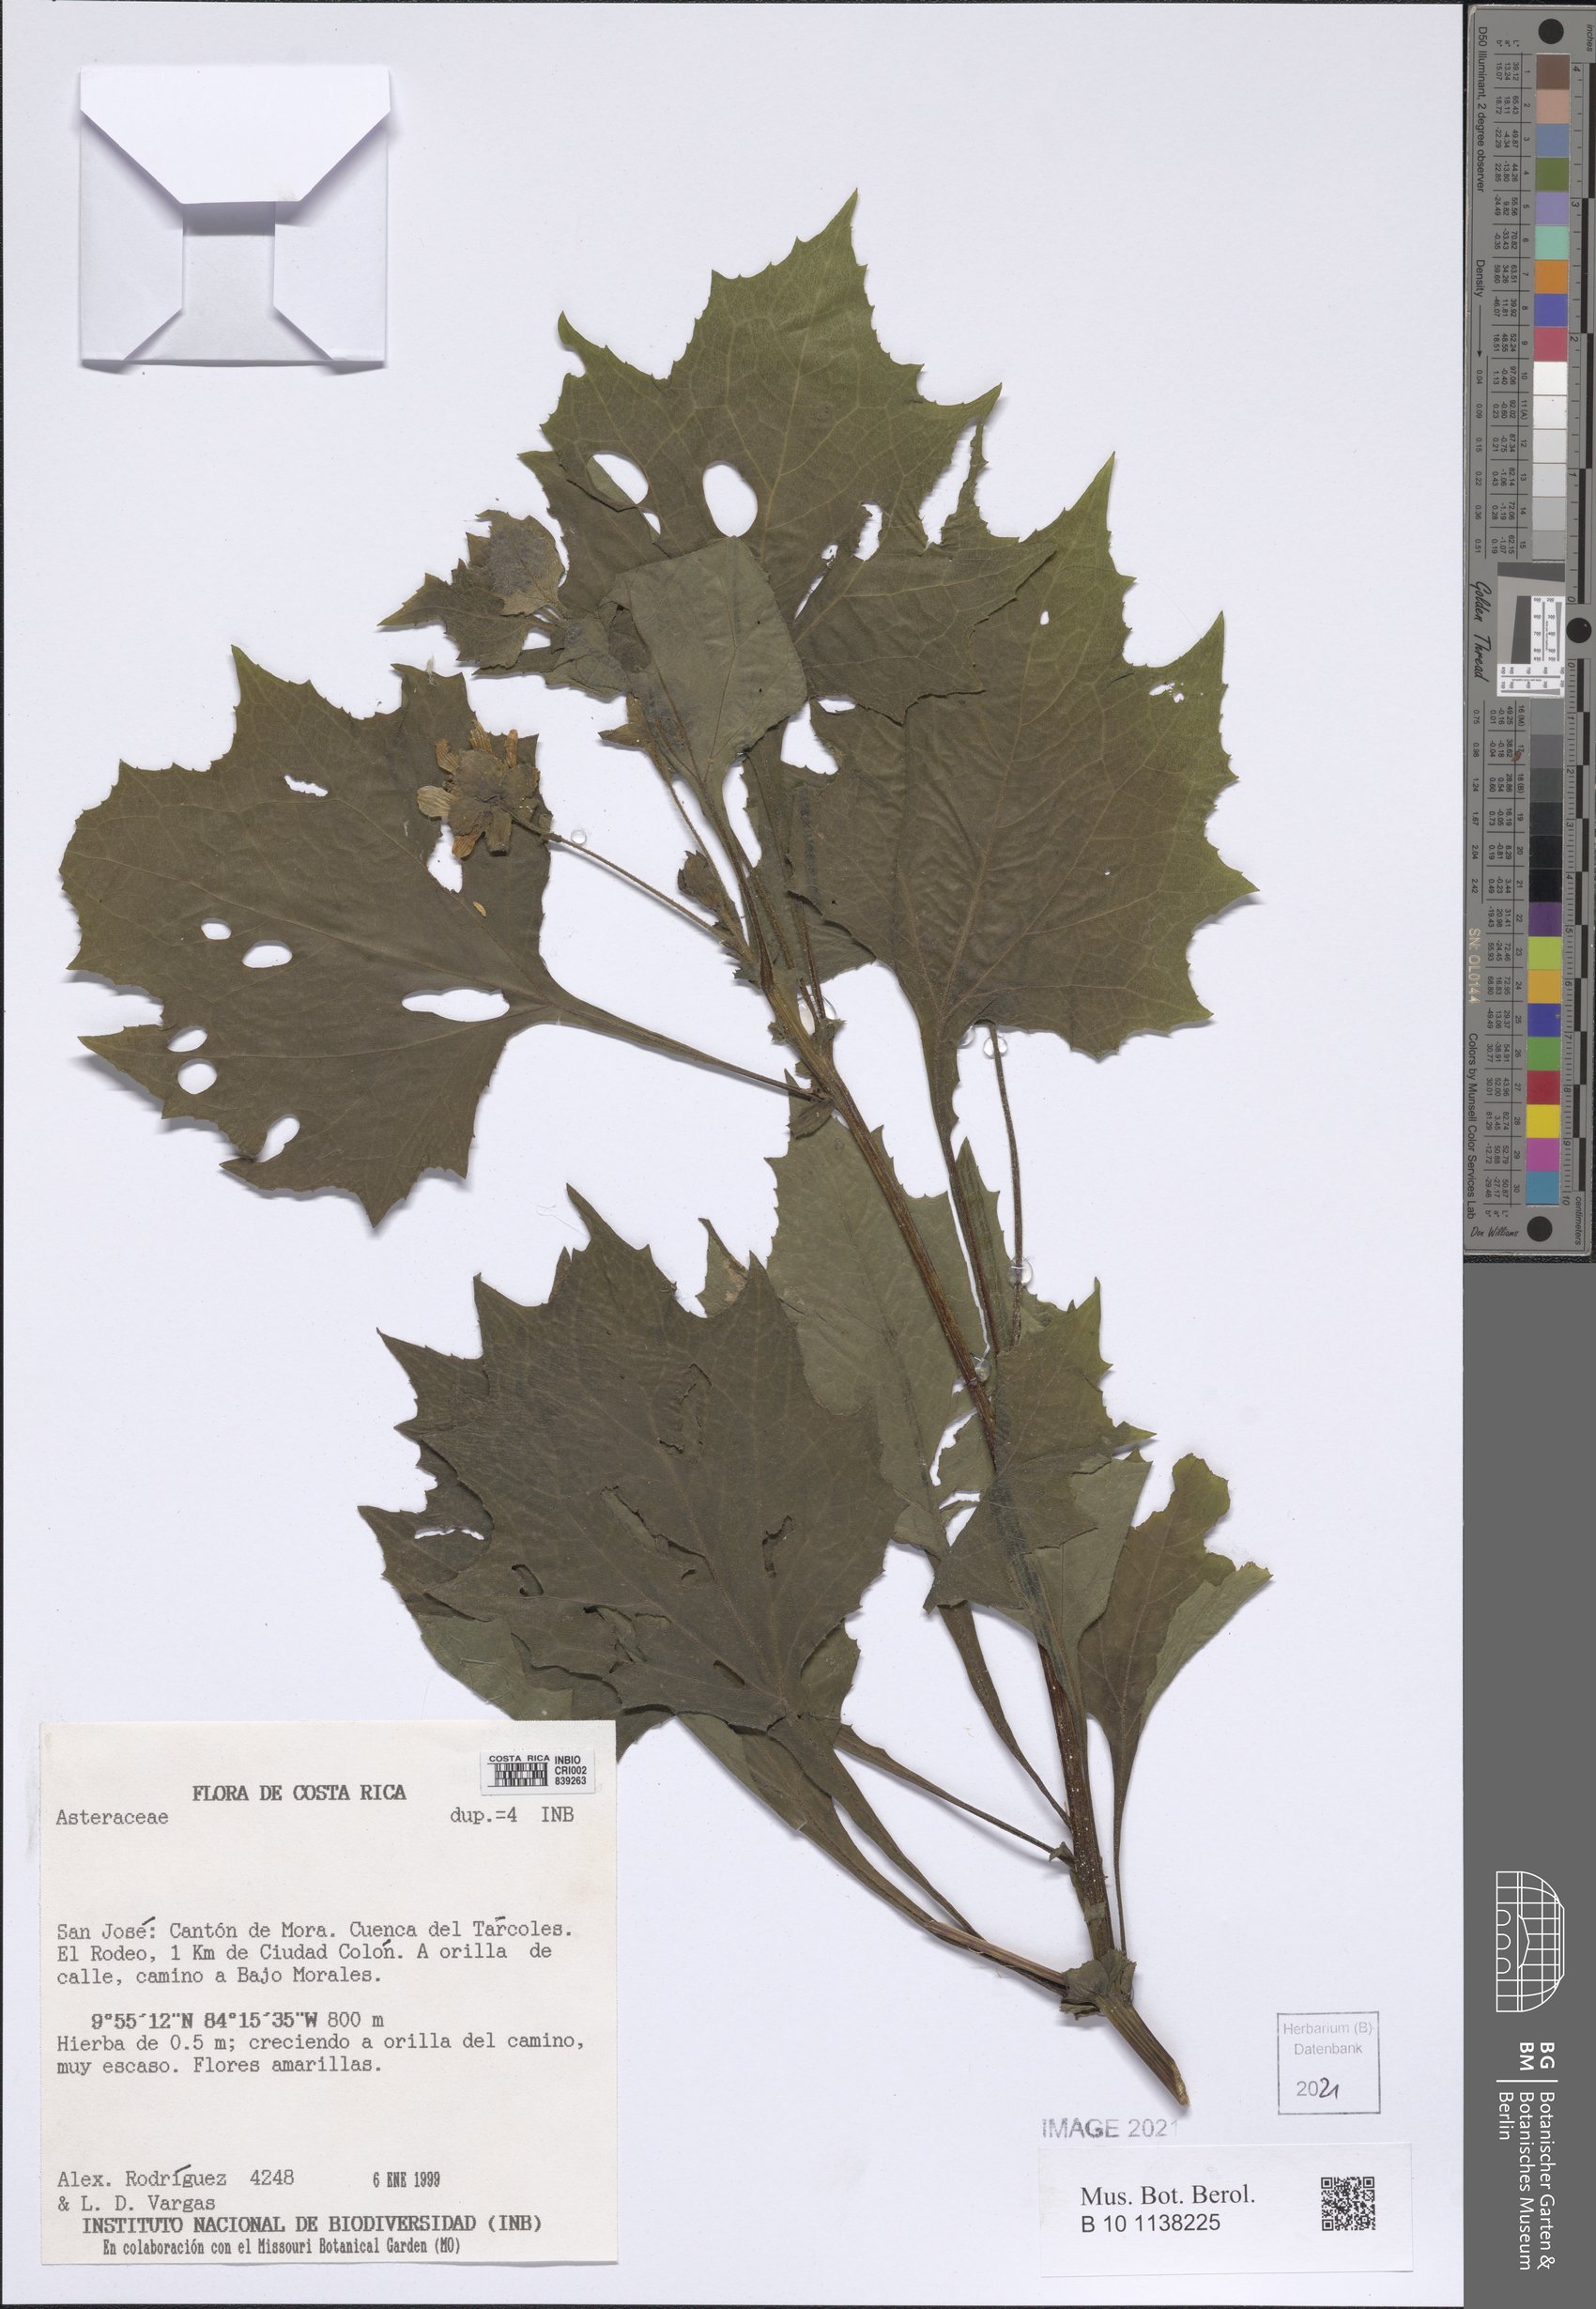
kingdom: Plantae
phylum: Tracheophyta
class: Magnoliopsida
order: Asterales
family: Asteraceae
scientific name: Asteraceae
